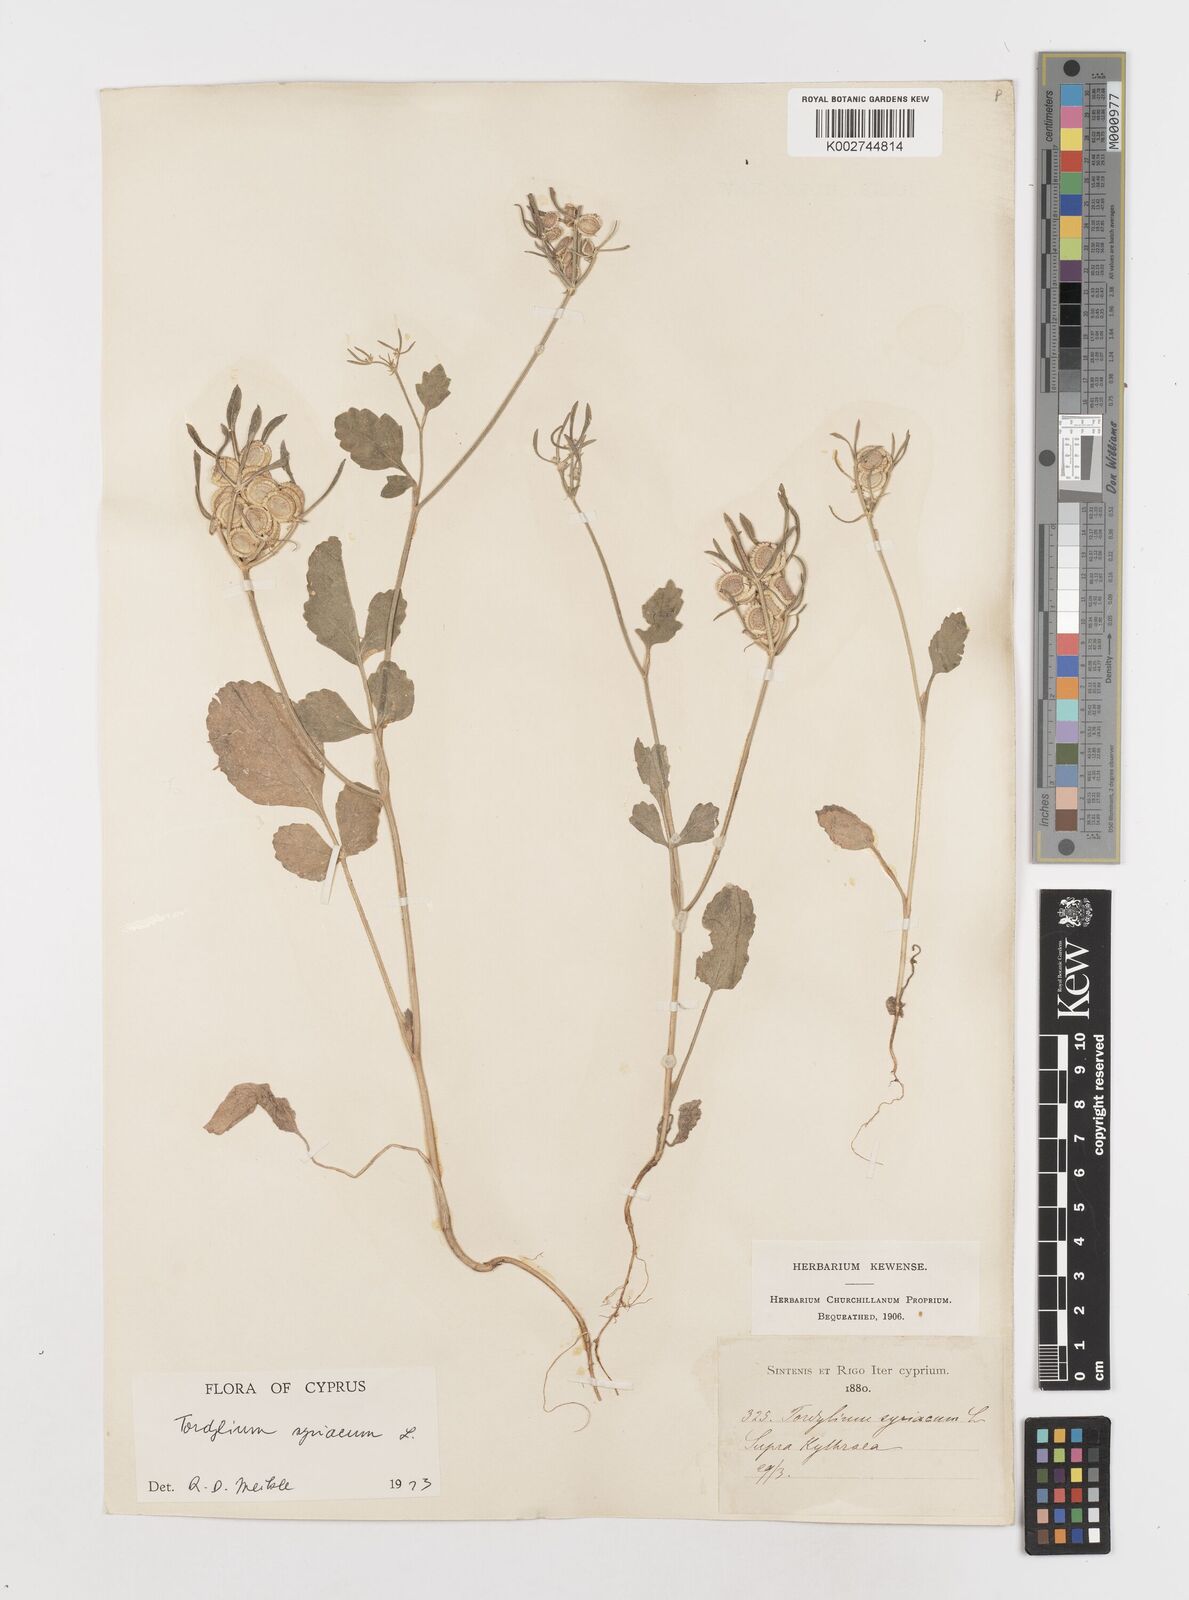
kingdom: Plantae
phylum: Tracheophyta
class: Magnoliopsida
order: Apiales
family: Apiaceae
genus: Tordylium
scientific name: Tordylium syriacum
